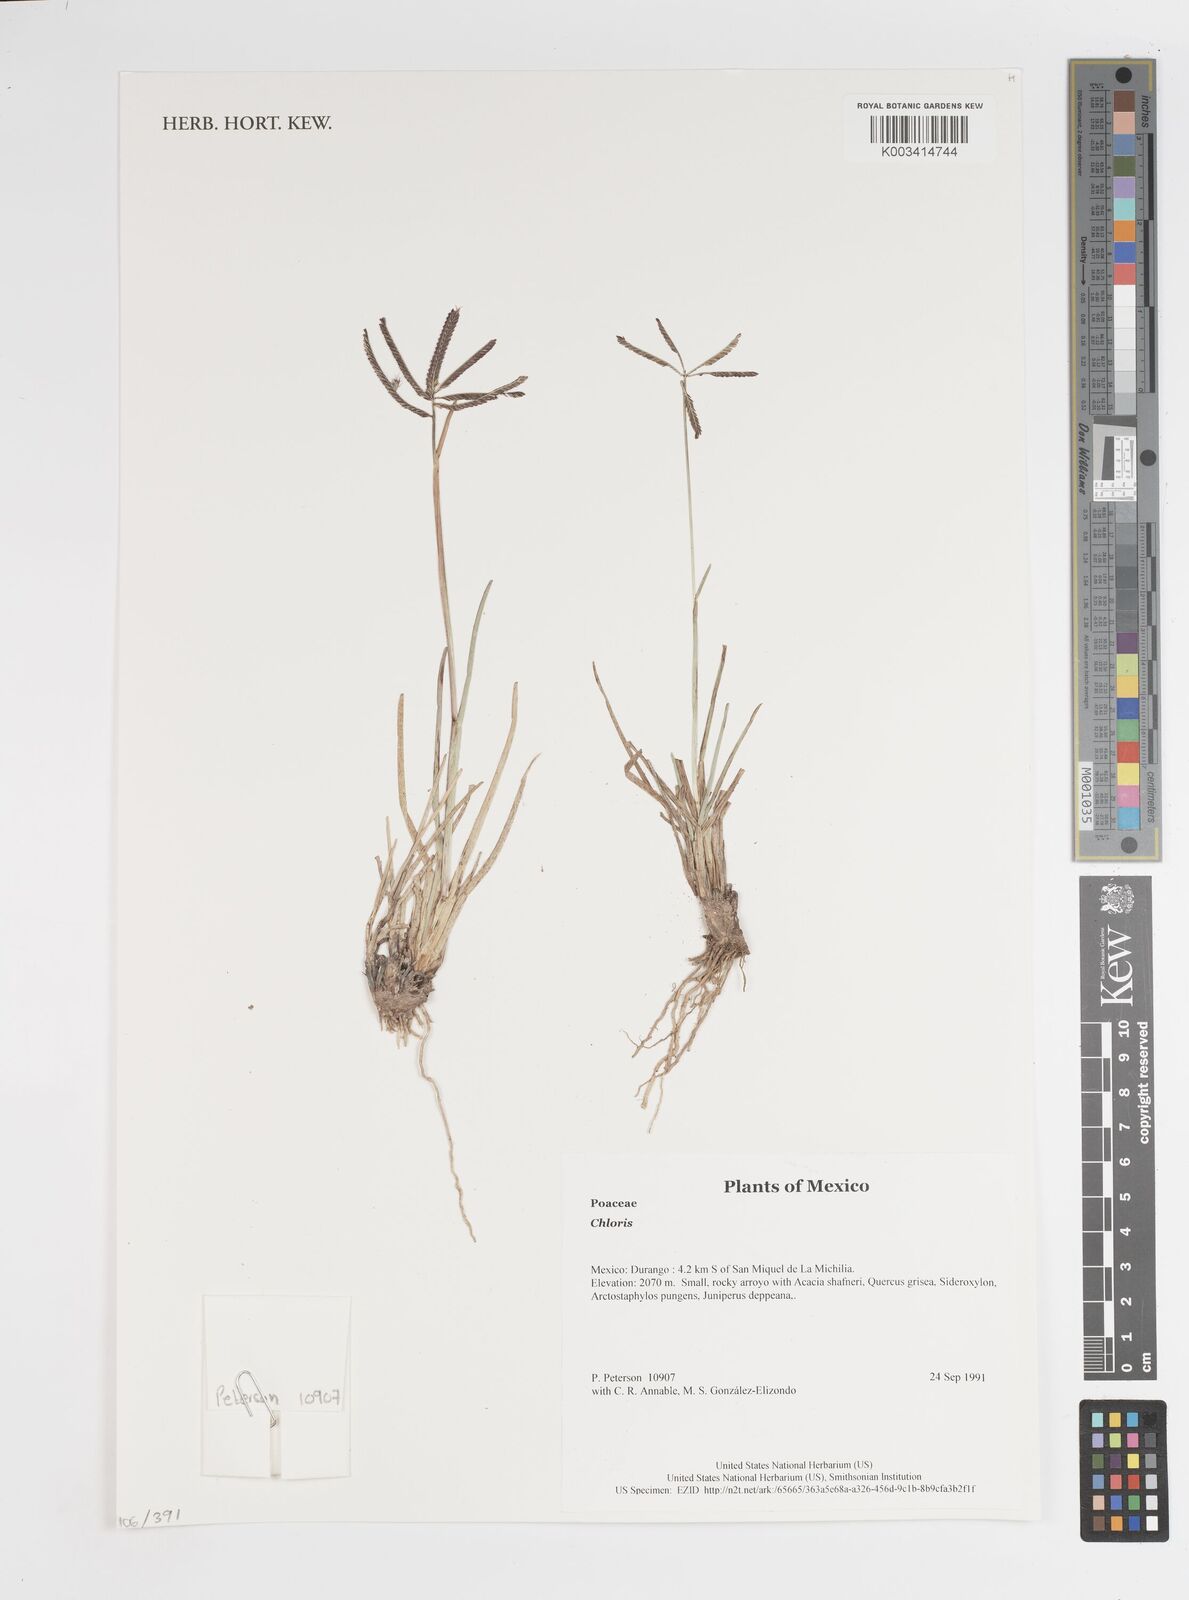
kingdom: Plantae
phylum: Tracheophyta
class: Liliopsida
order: Poales
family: Poaceae
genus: Chloris
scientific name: Chloris
